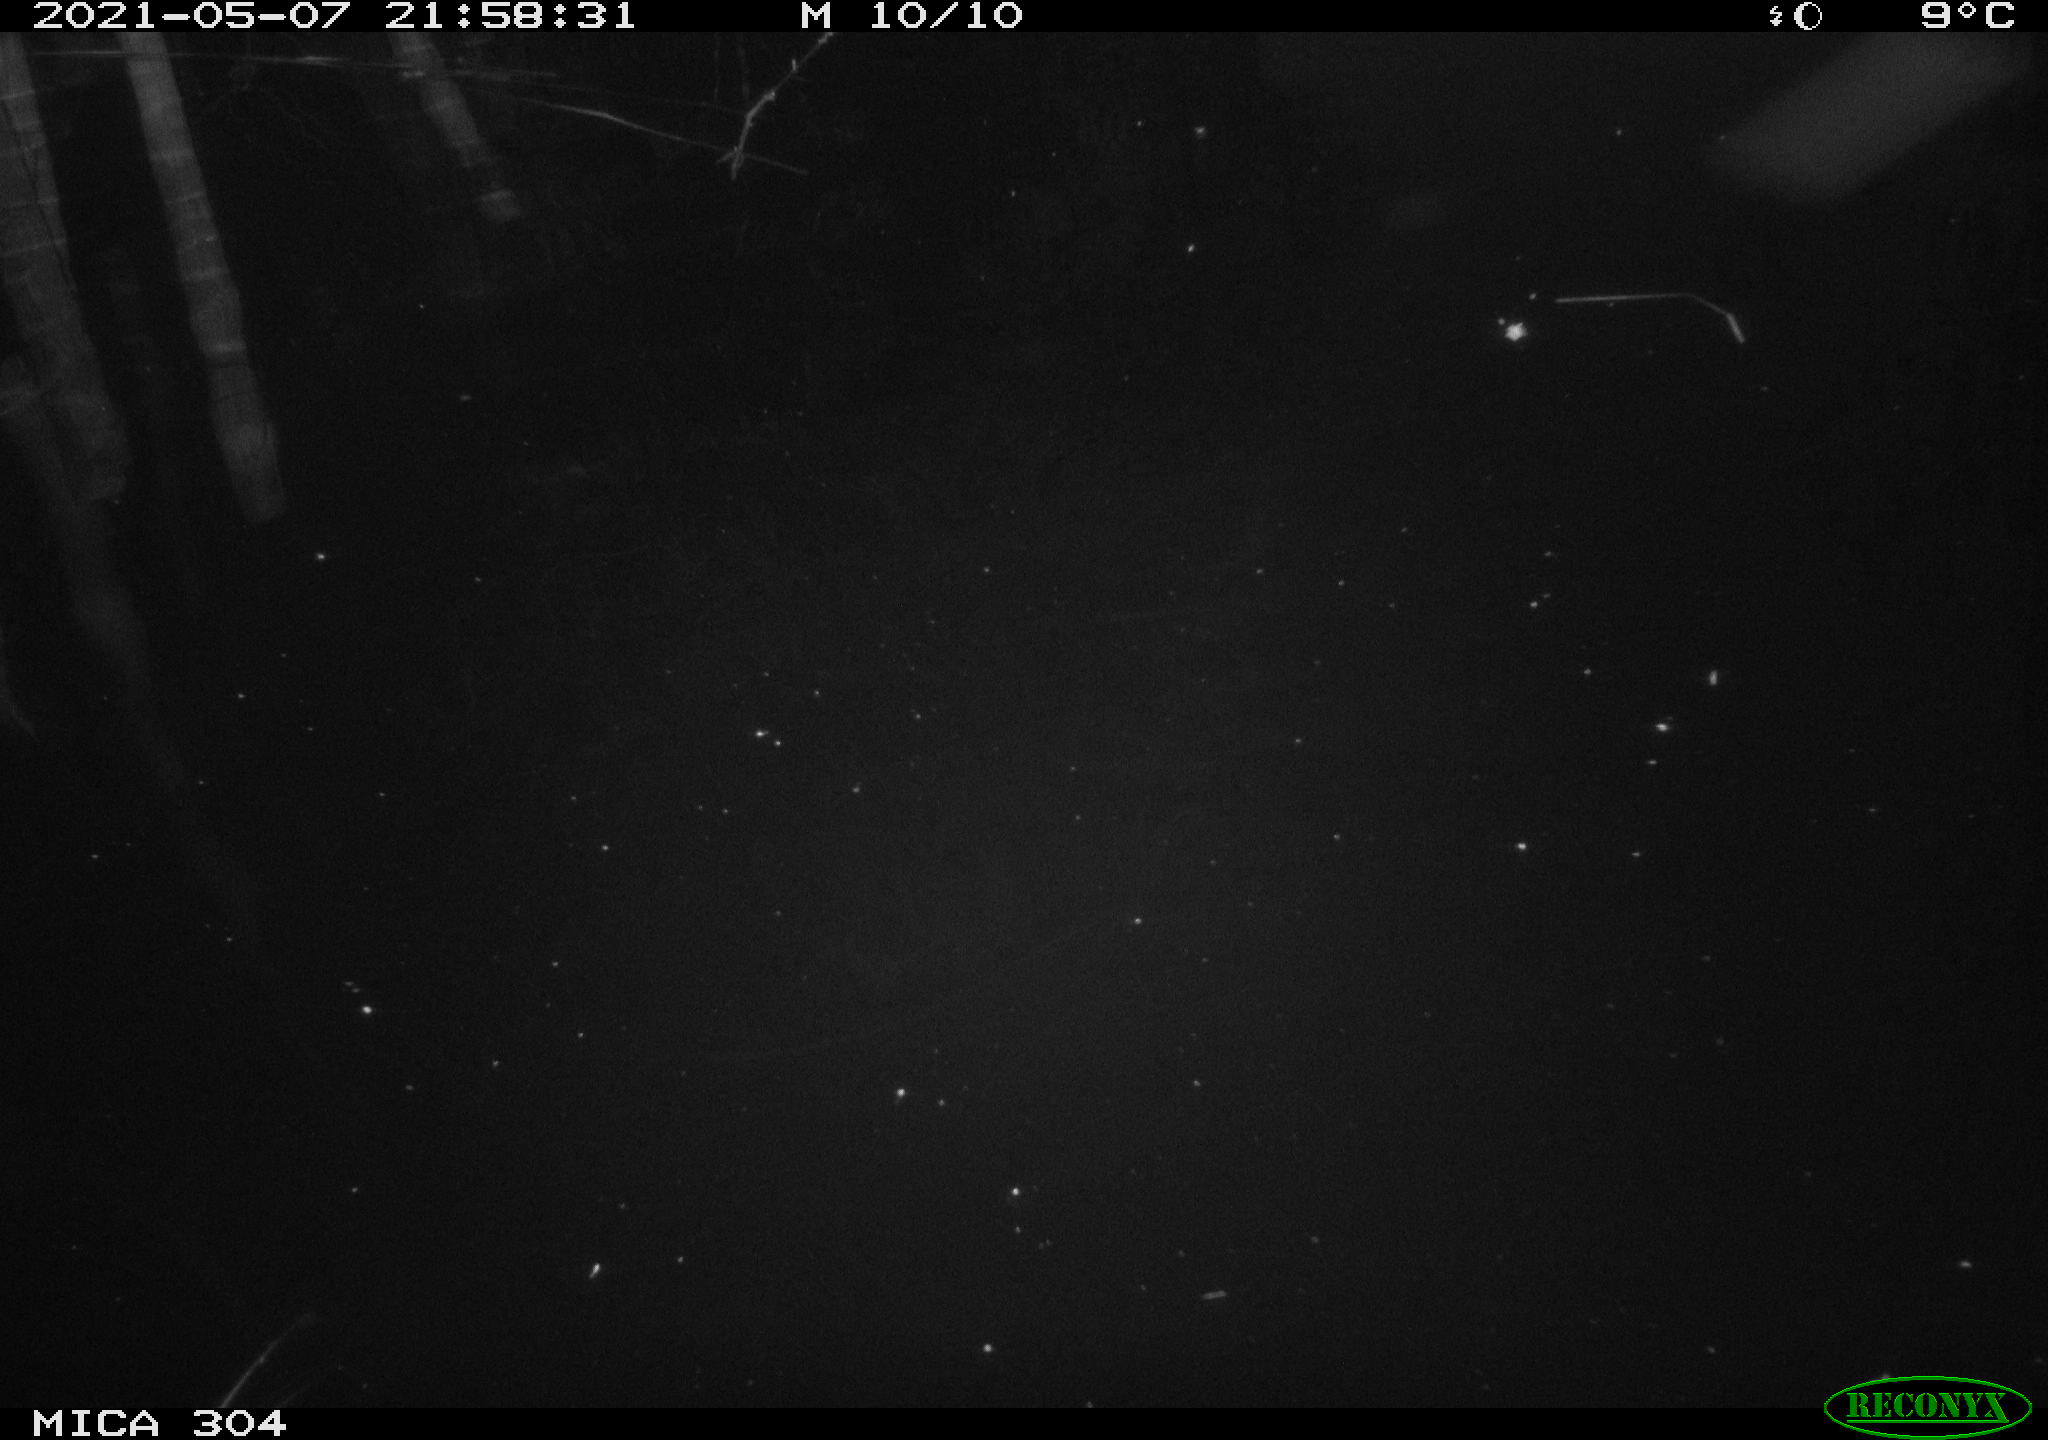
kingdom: Animalia
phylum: Chordata
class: Aves
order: Gruiformes
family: Rallidae
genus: Fulica
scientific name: Fulica atra
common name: Eurasian coot
